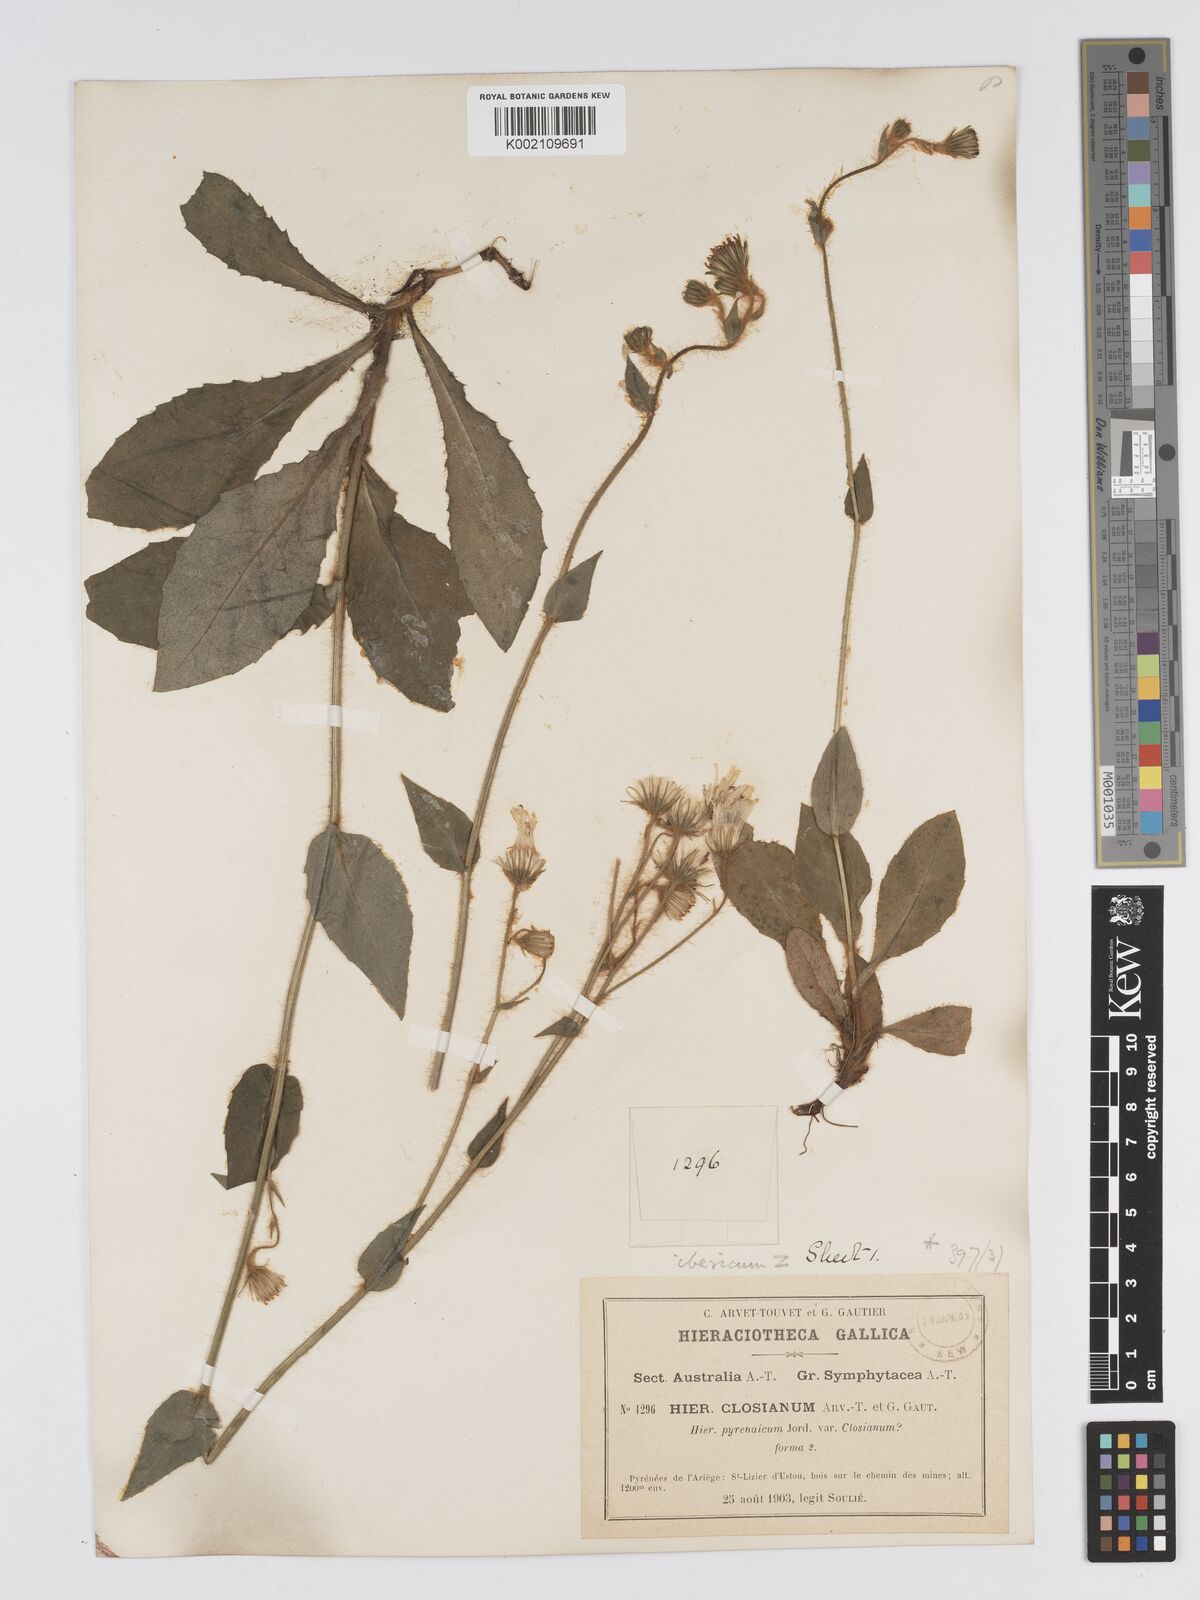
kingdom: Plantae
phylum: Tracheophyta
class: Magnoliopsida
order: Asterales
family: Asteraceae
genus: Hieracium
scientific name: Hieracium nobile
